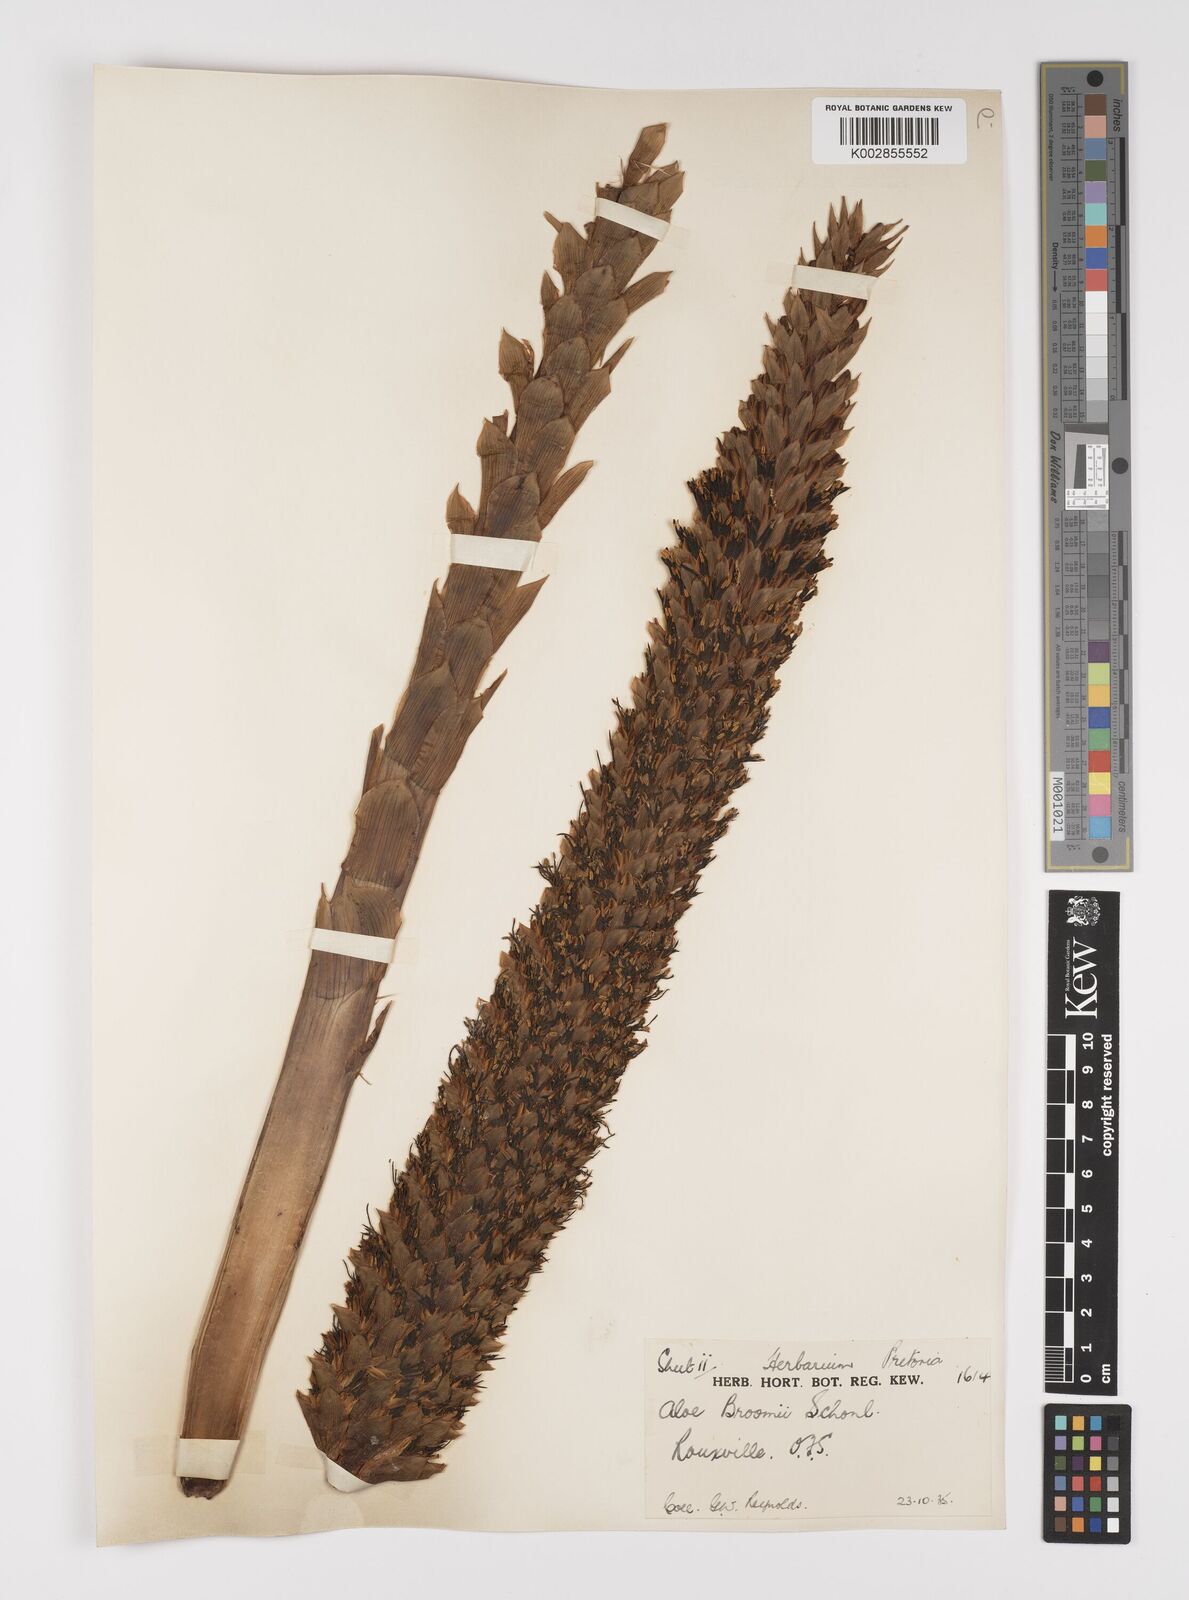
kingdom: Plantae
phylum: Tracheophyta
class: Liliopsida
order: Asparagales
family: Asphodelaceae
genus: Aloe
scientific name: Aloe broomii
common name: Berg alwyn
